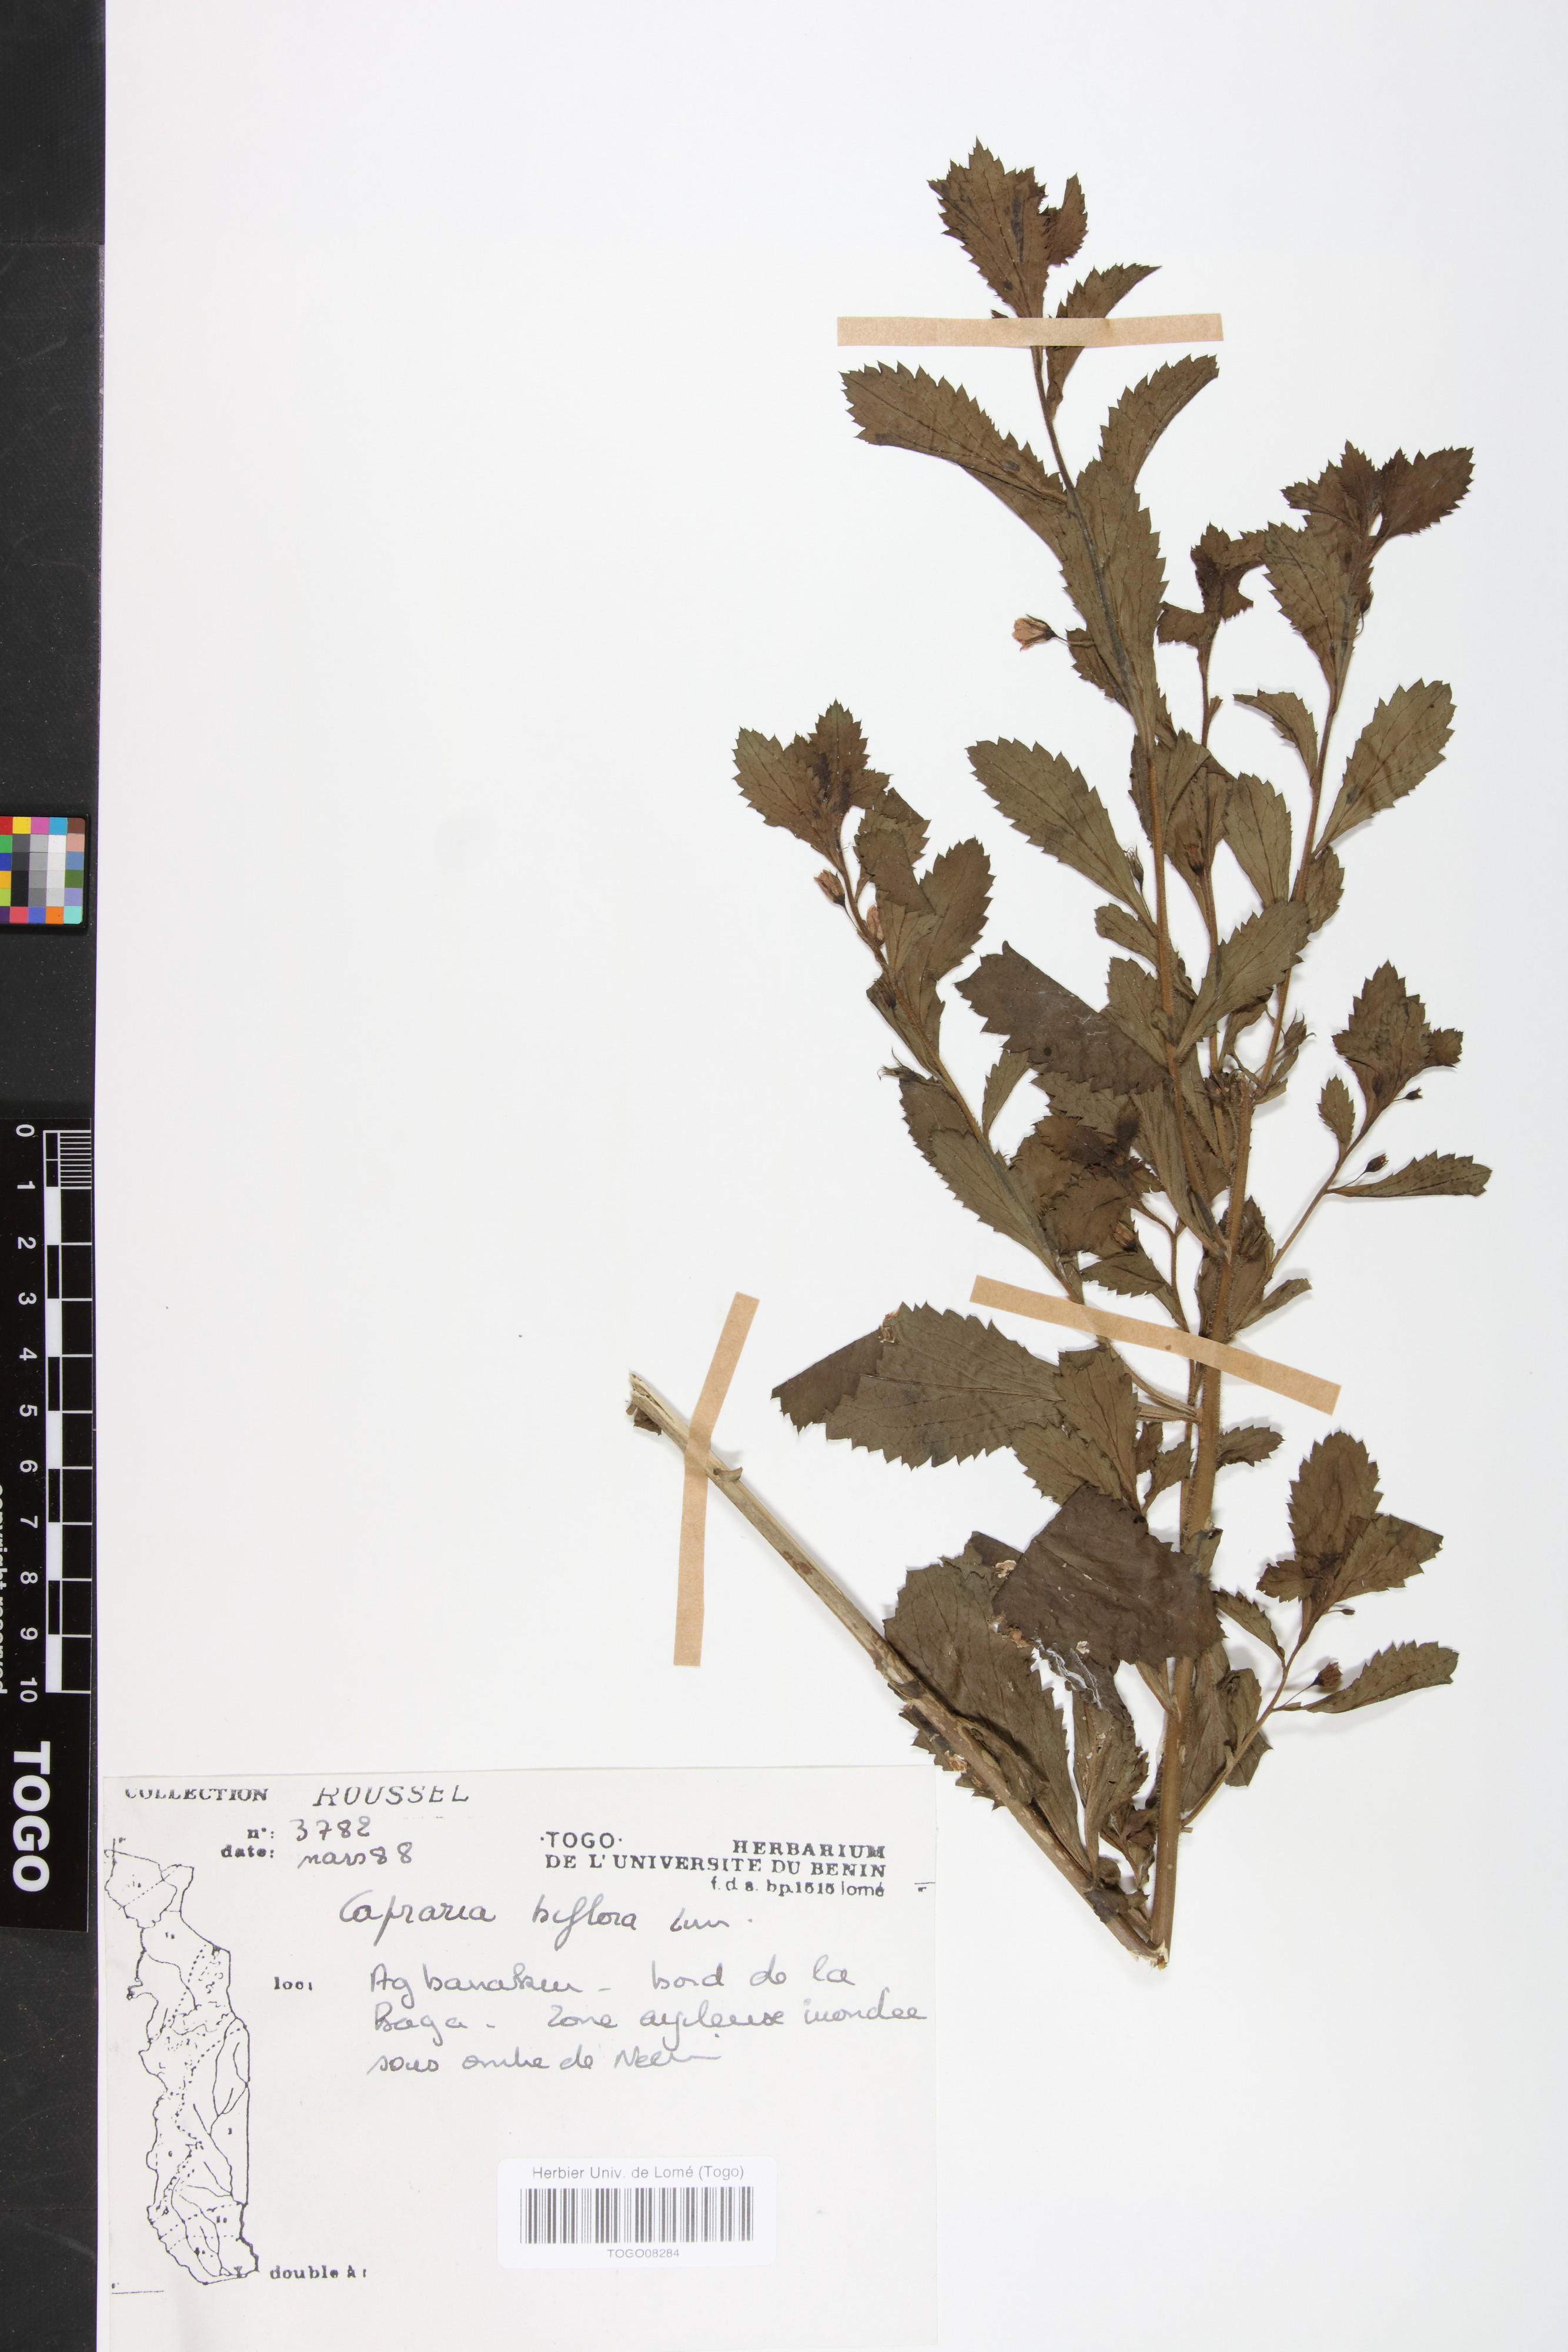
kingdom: Plantae
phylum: Tracheophyta
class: Magnoliopsida
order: Lamiales
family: Scrophulariaceae
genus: Capraria
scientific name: Capraria biflora
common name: Goatweed
